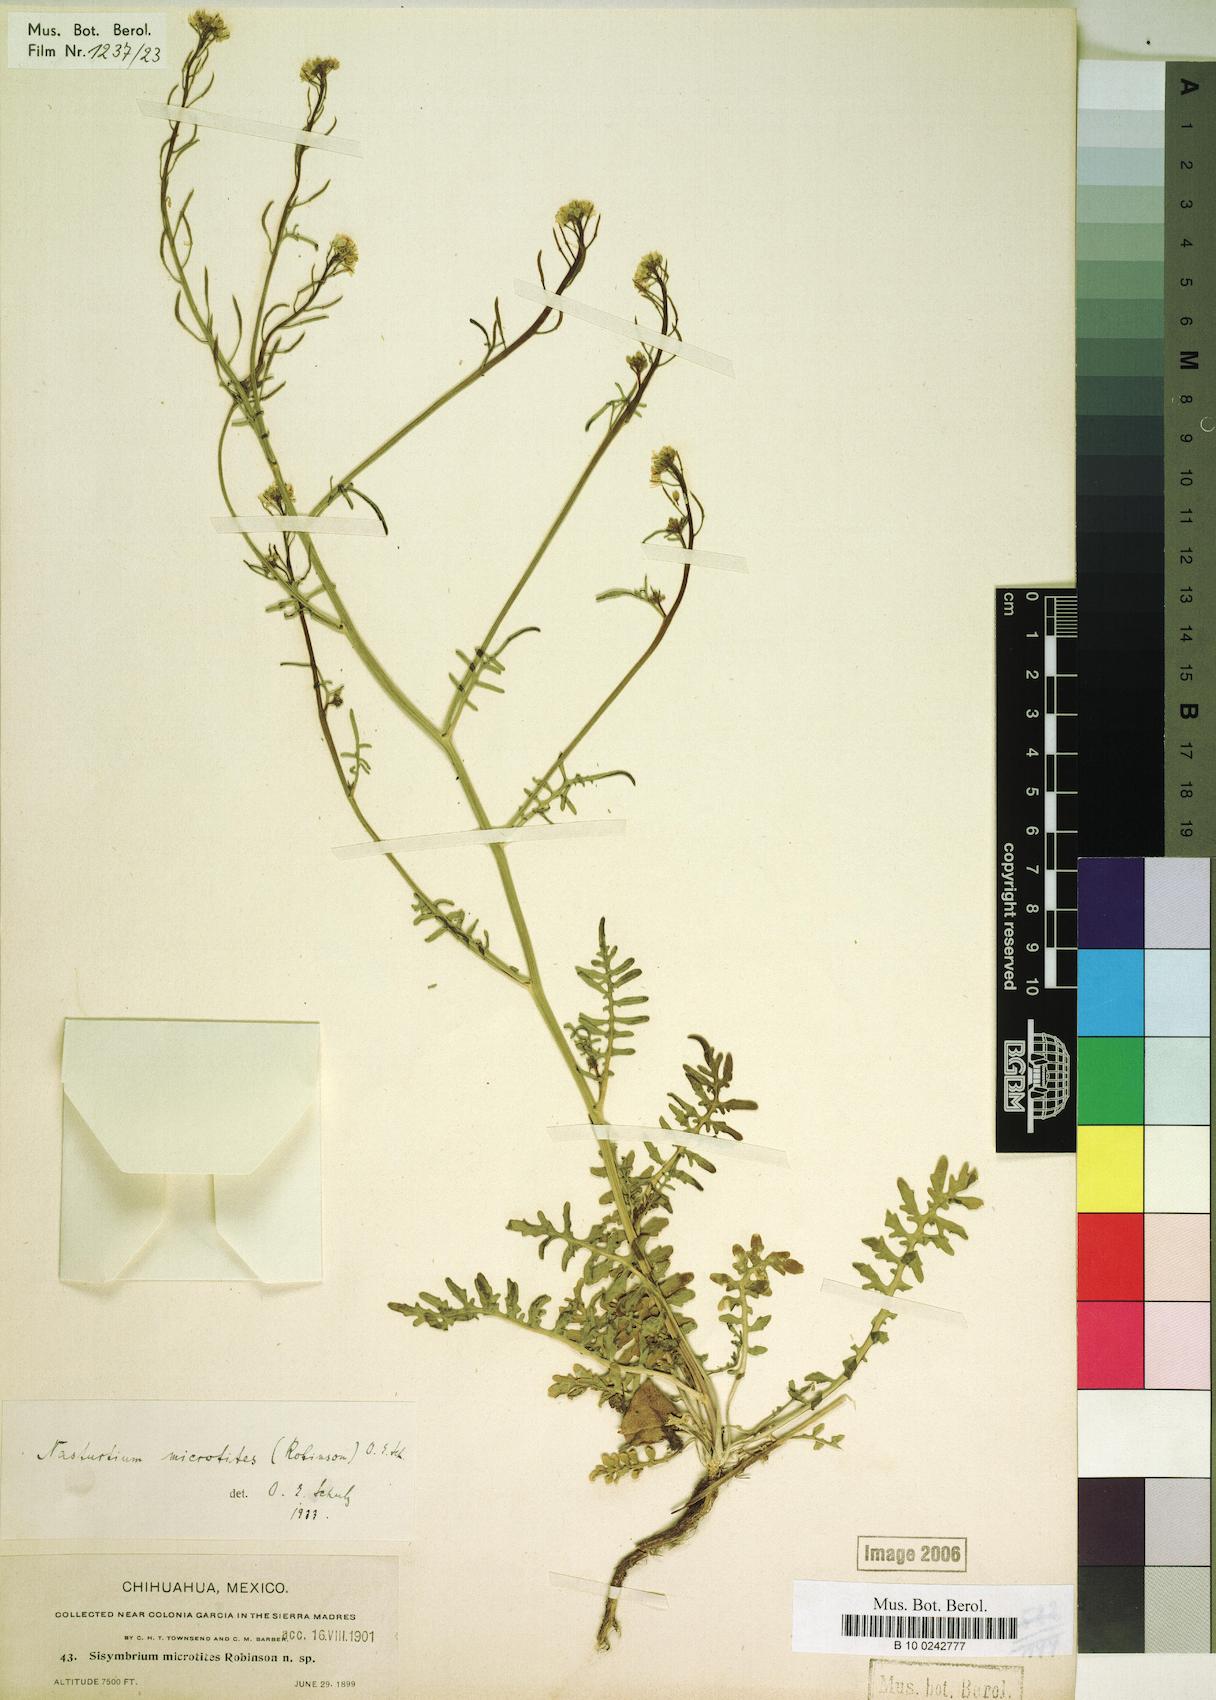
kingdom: Plantae
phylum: Tracheophyta
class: Magnoliopsida
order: Brassicales
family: Brassicaceae
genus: Rorippa
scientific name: Rorippa microtitis
